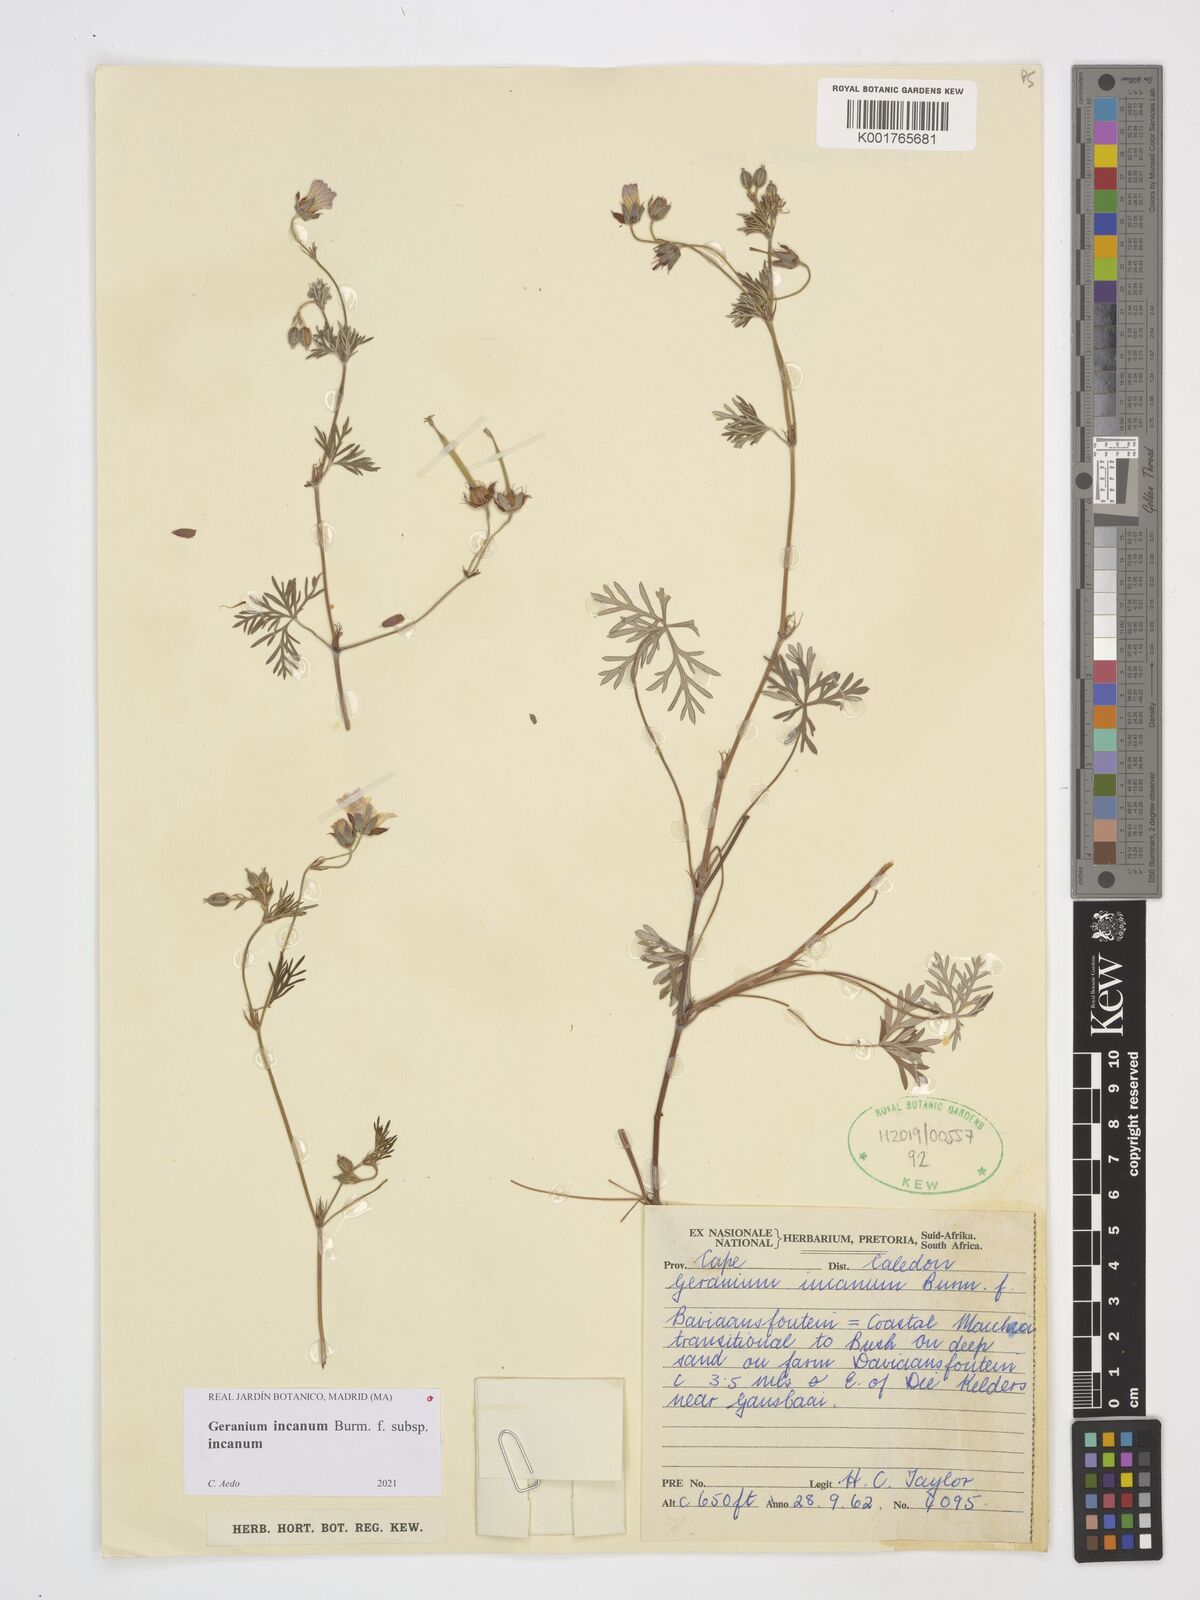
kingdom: Plantae
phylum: Tracheophyta
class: Magnoliopsida
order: Geraniales
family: Geraniaceae
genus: Geranium
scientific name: Geranium incanum
